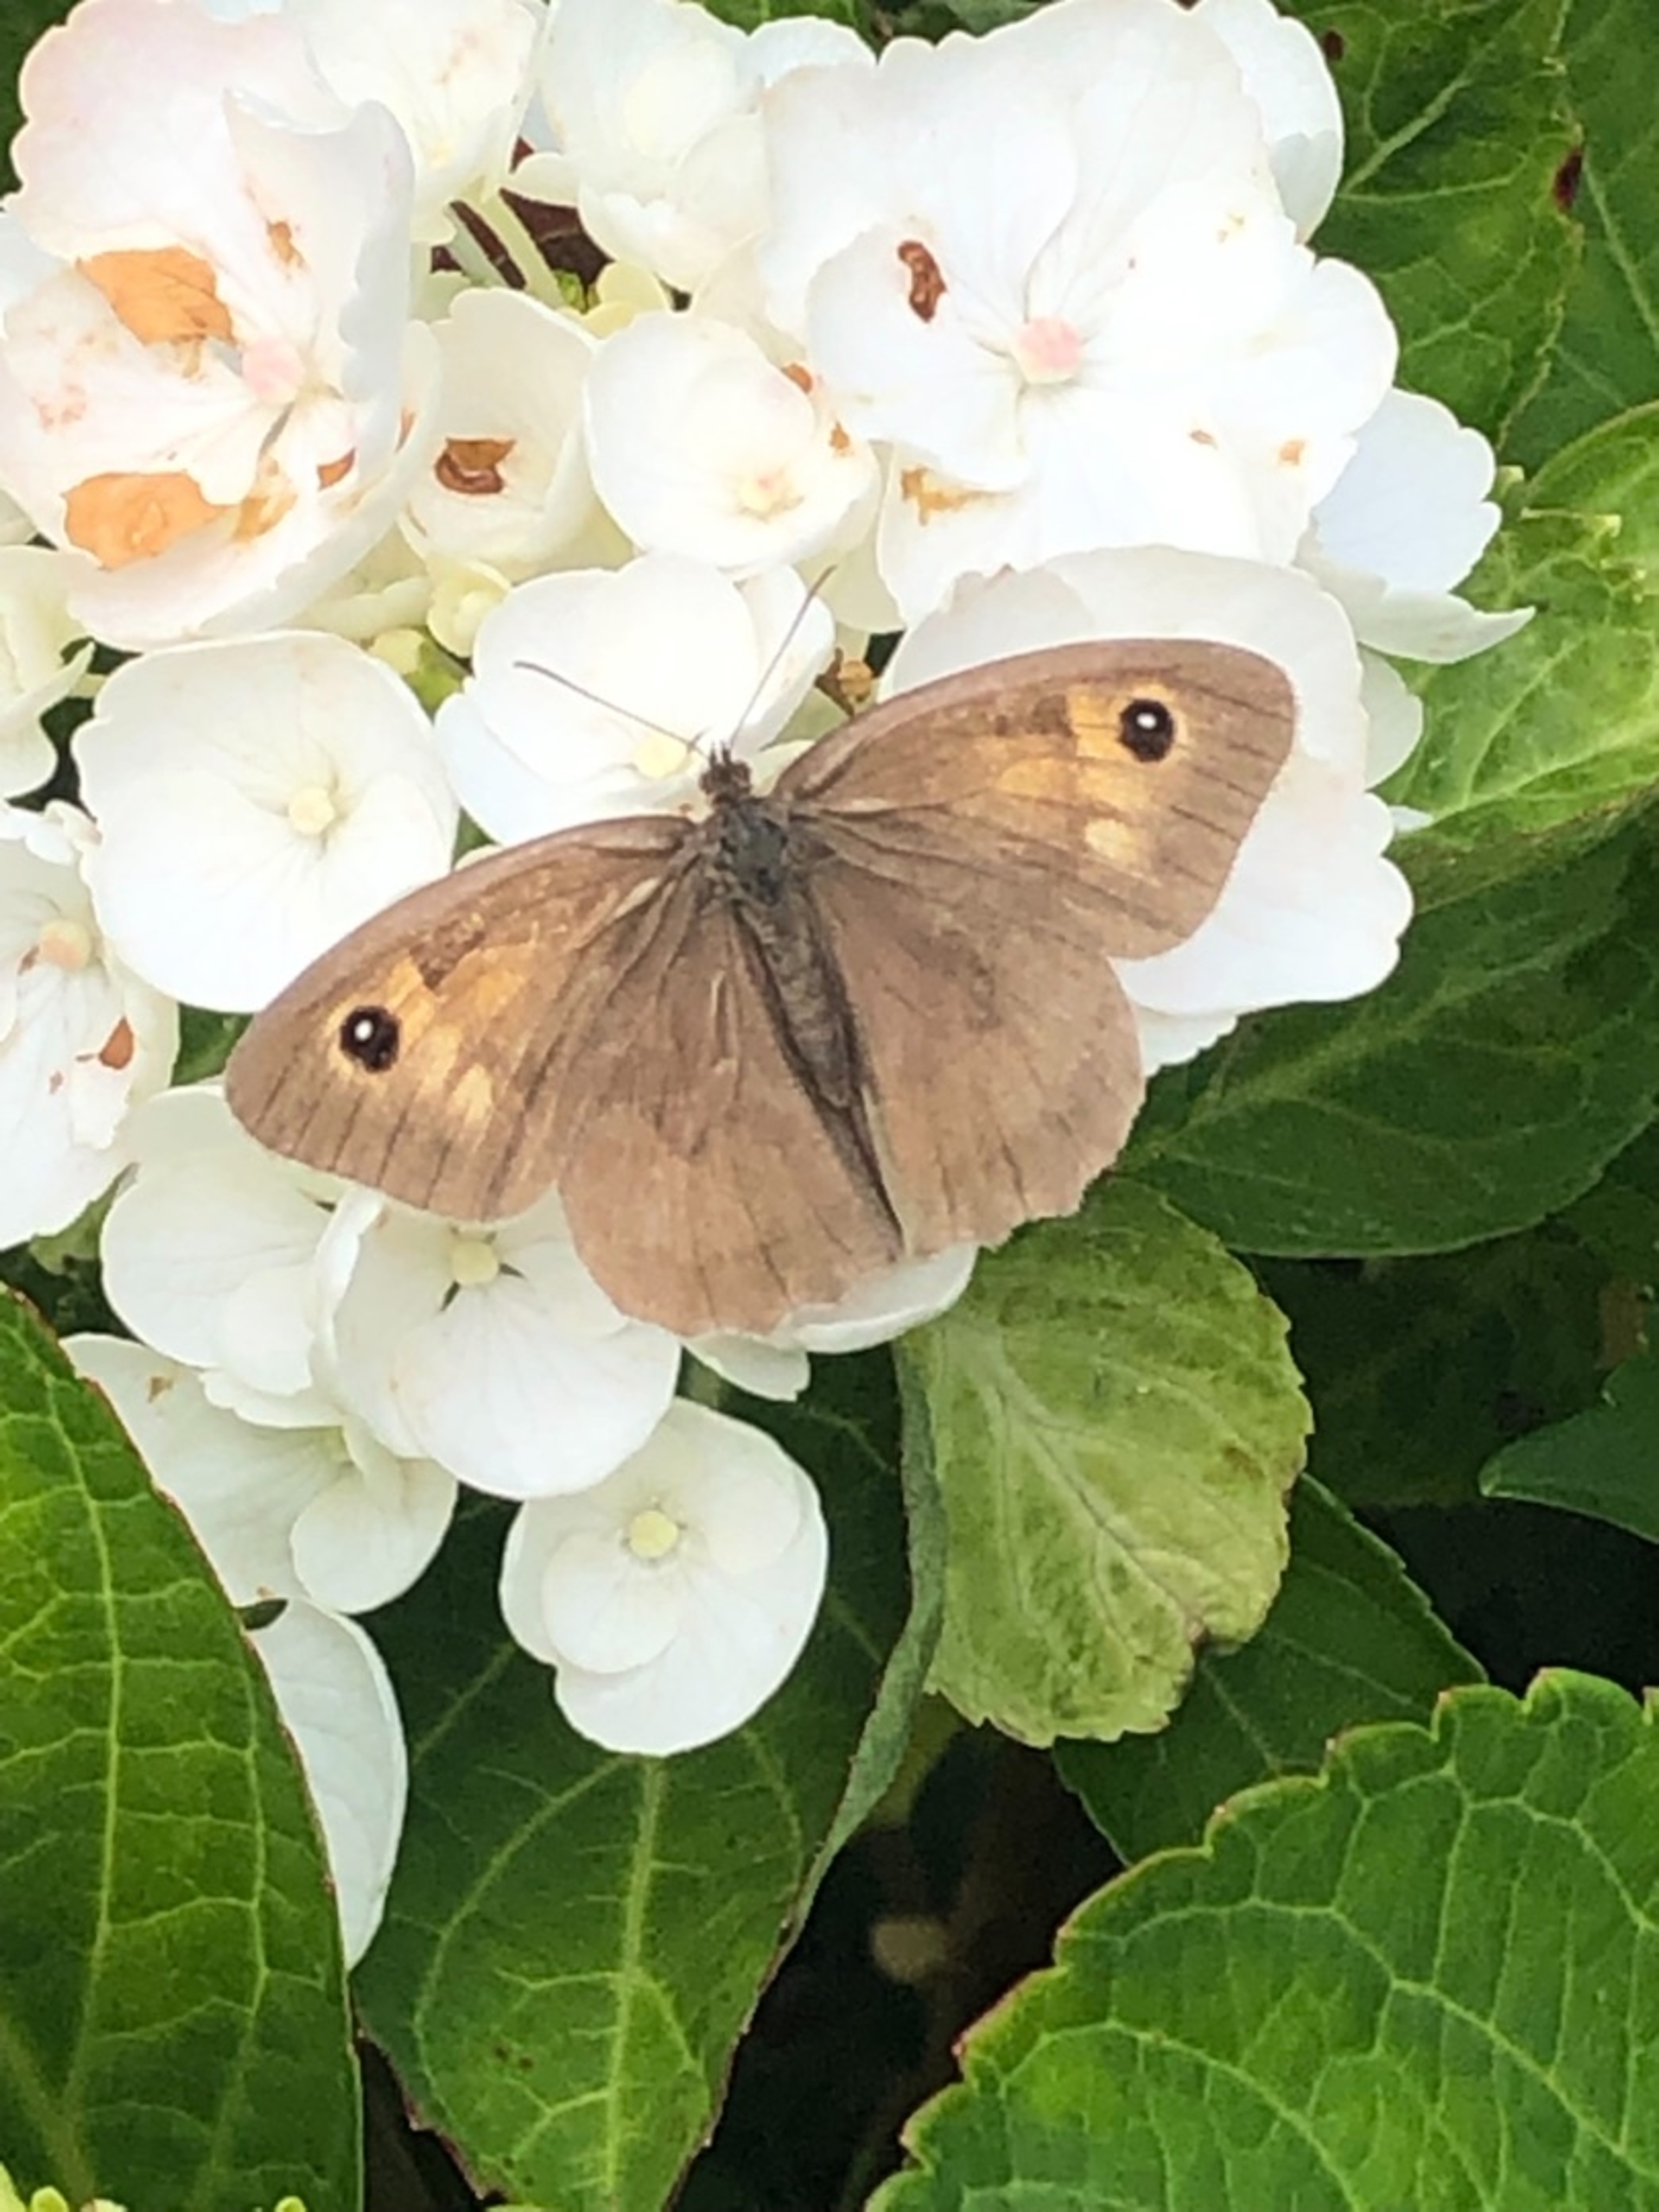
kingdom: Animalia
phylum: Arthropoda
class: Insecta
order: Lepidoptera
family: Nymphalidae
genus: Maniola
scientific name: Maniola jurtina
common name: Græsrandøje
